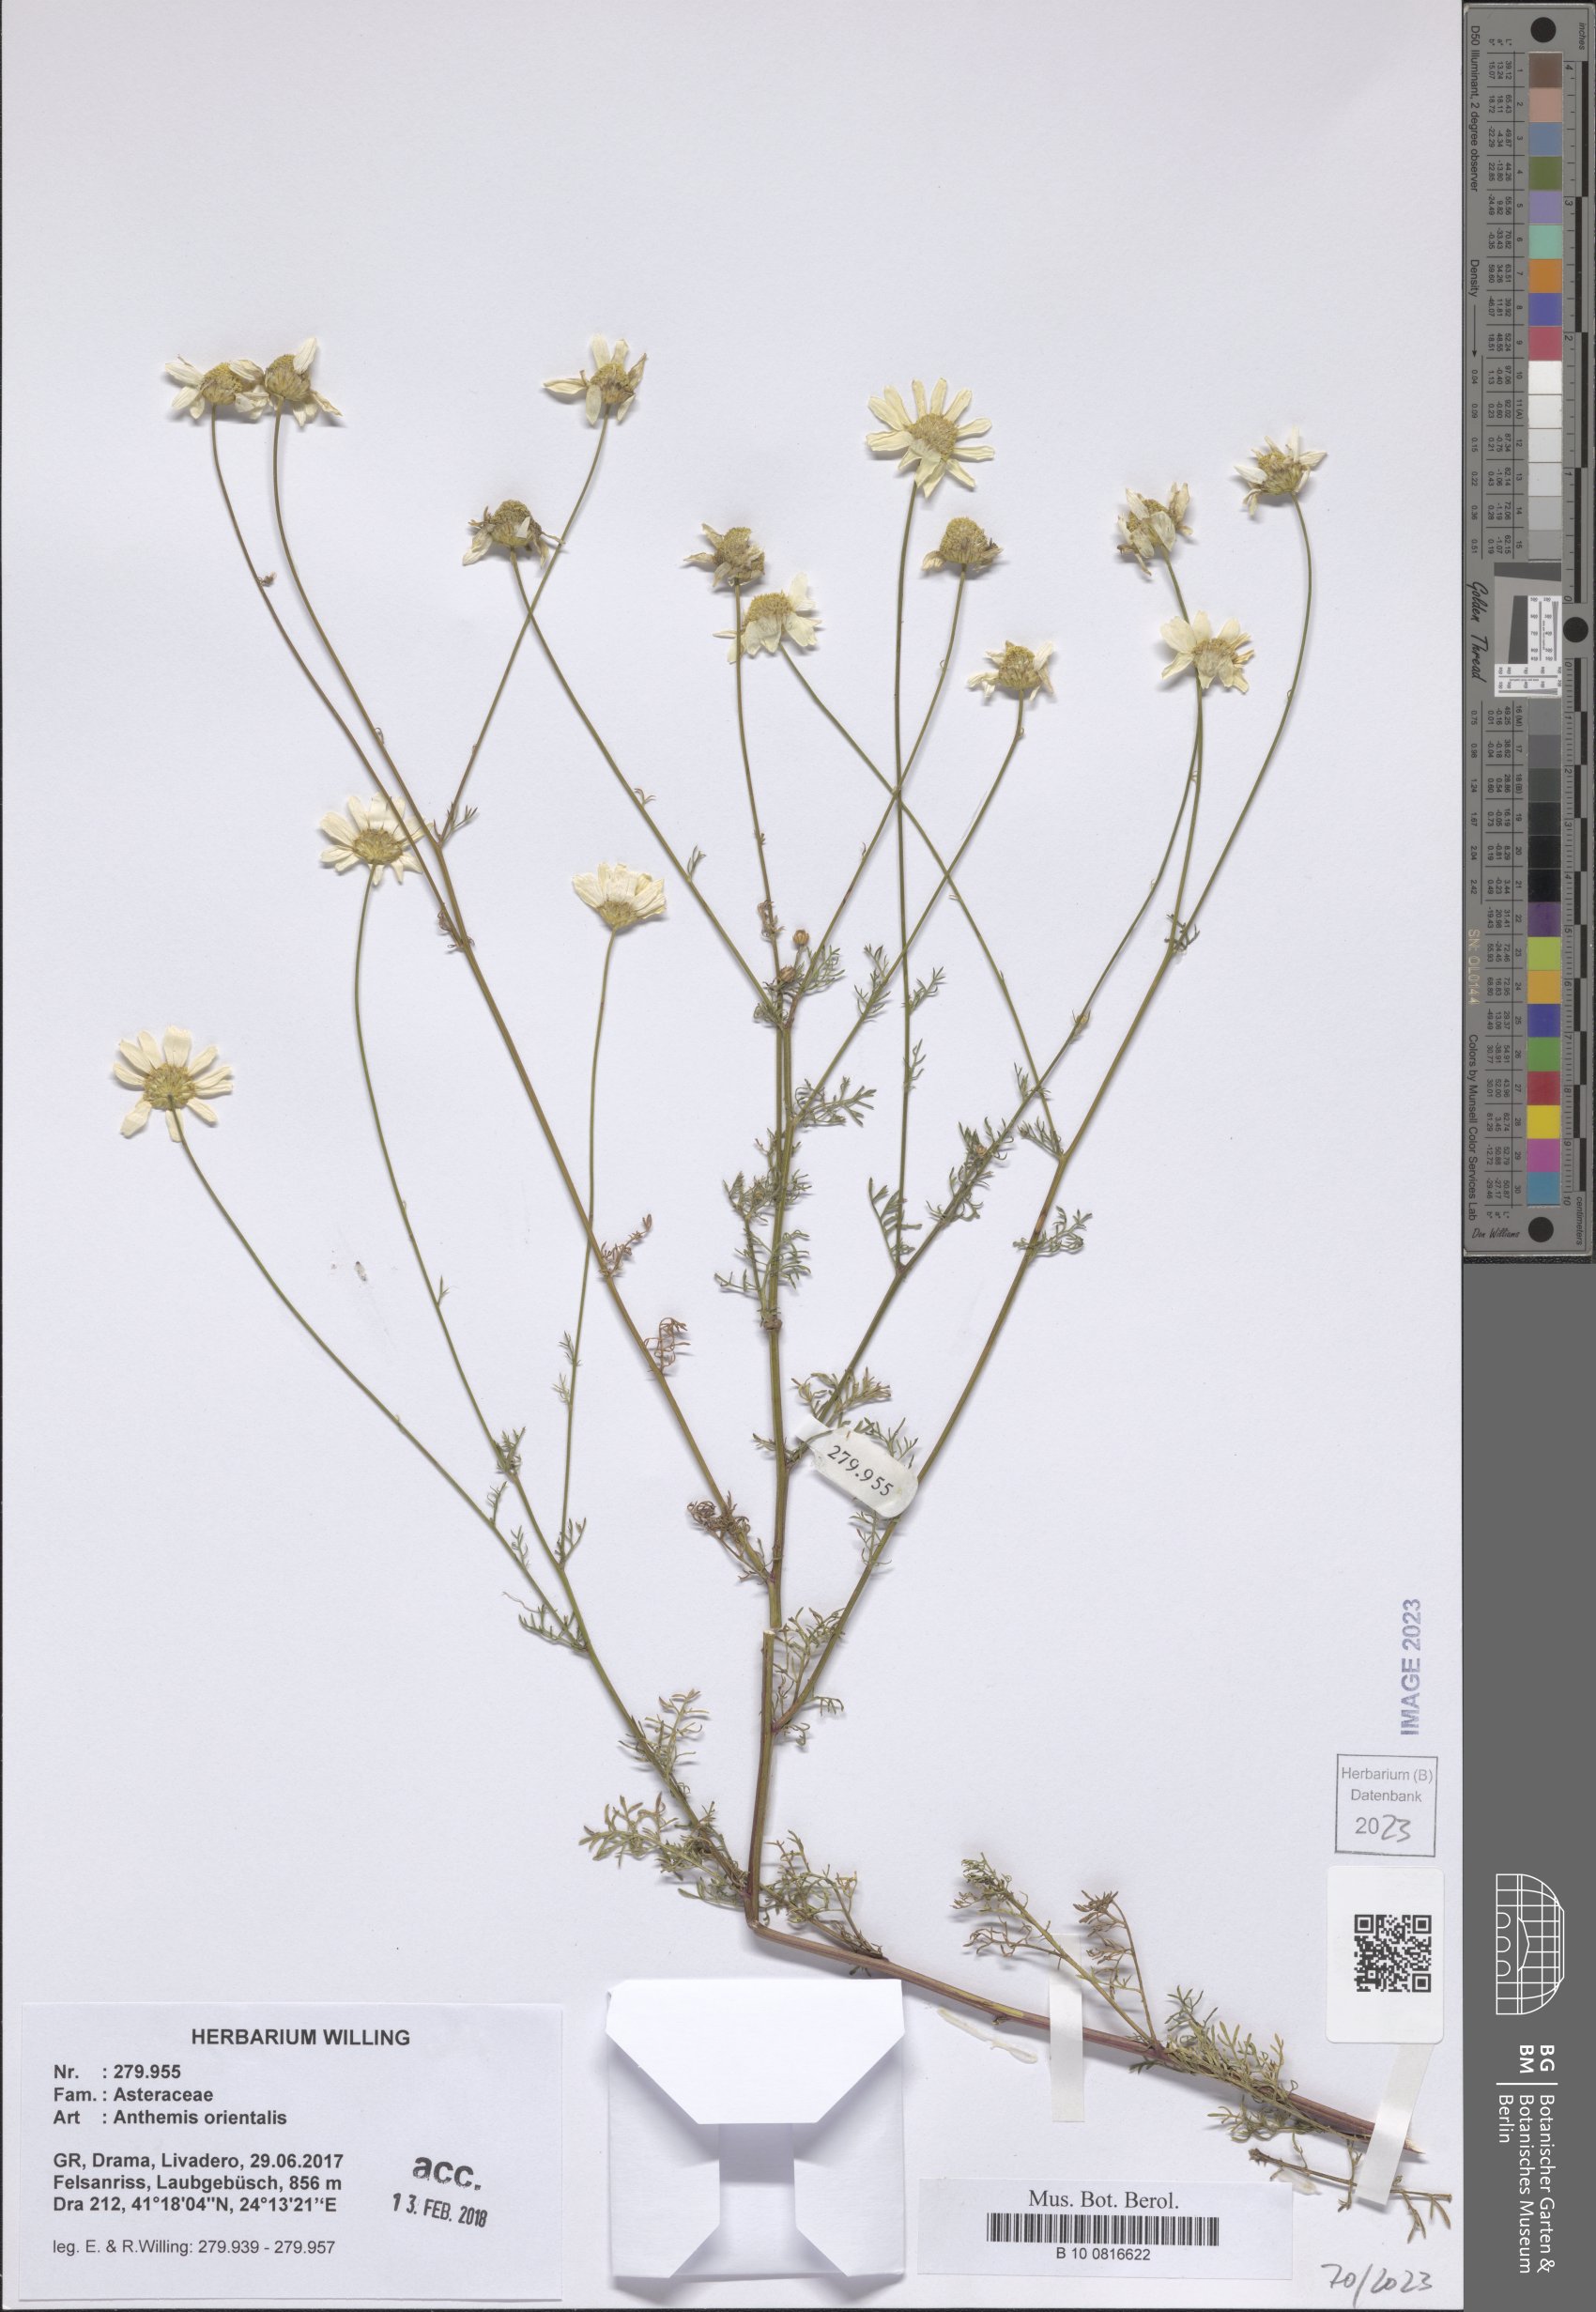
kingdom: Plantae
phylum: Tracheophyta
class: Magnoliopsida
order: Asterales
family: Asteraceae
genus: Anthemis
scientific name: Anthemis orientalis
